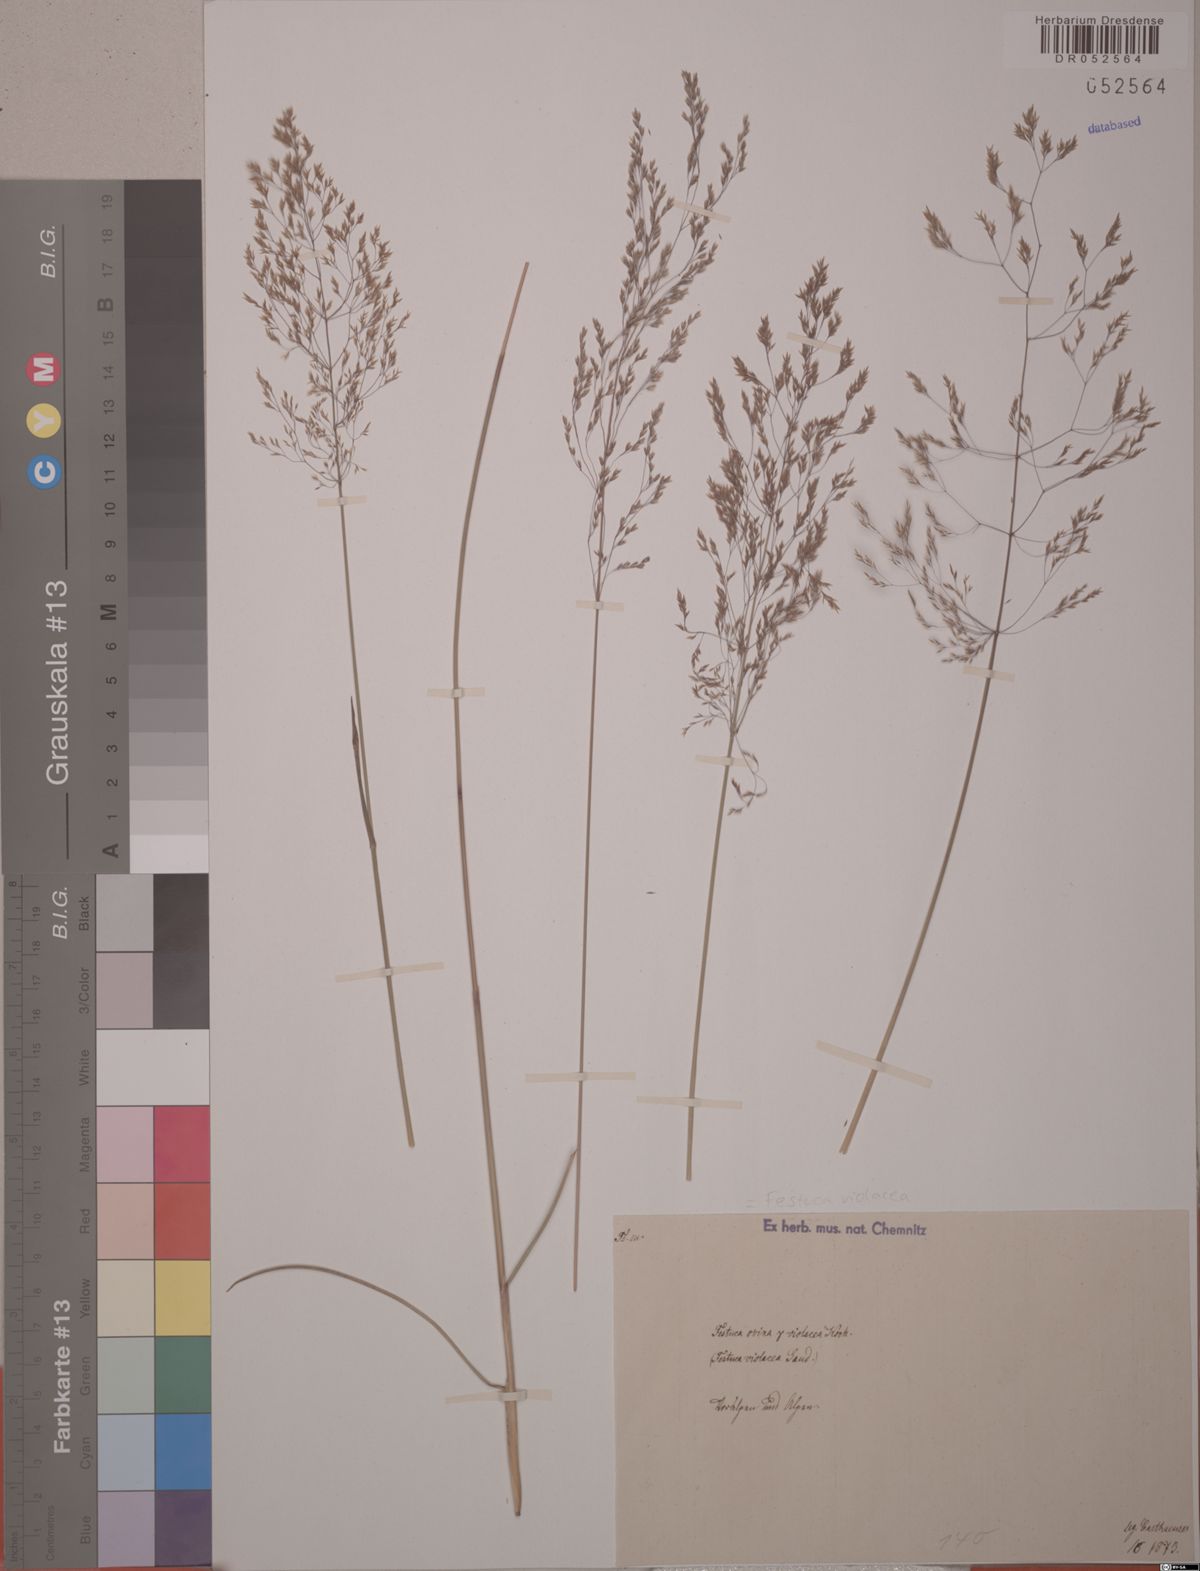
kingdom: Plantae
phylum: Tracheophyta
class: Liliopsida
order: Poales
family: Poaceae
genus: Festuca
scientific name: Festuca violacea
